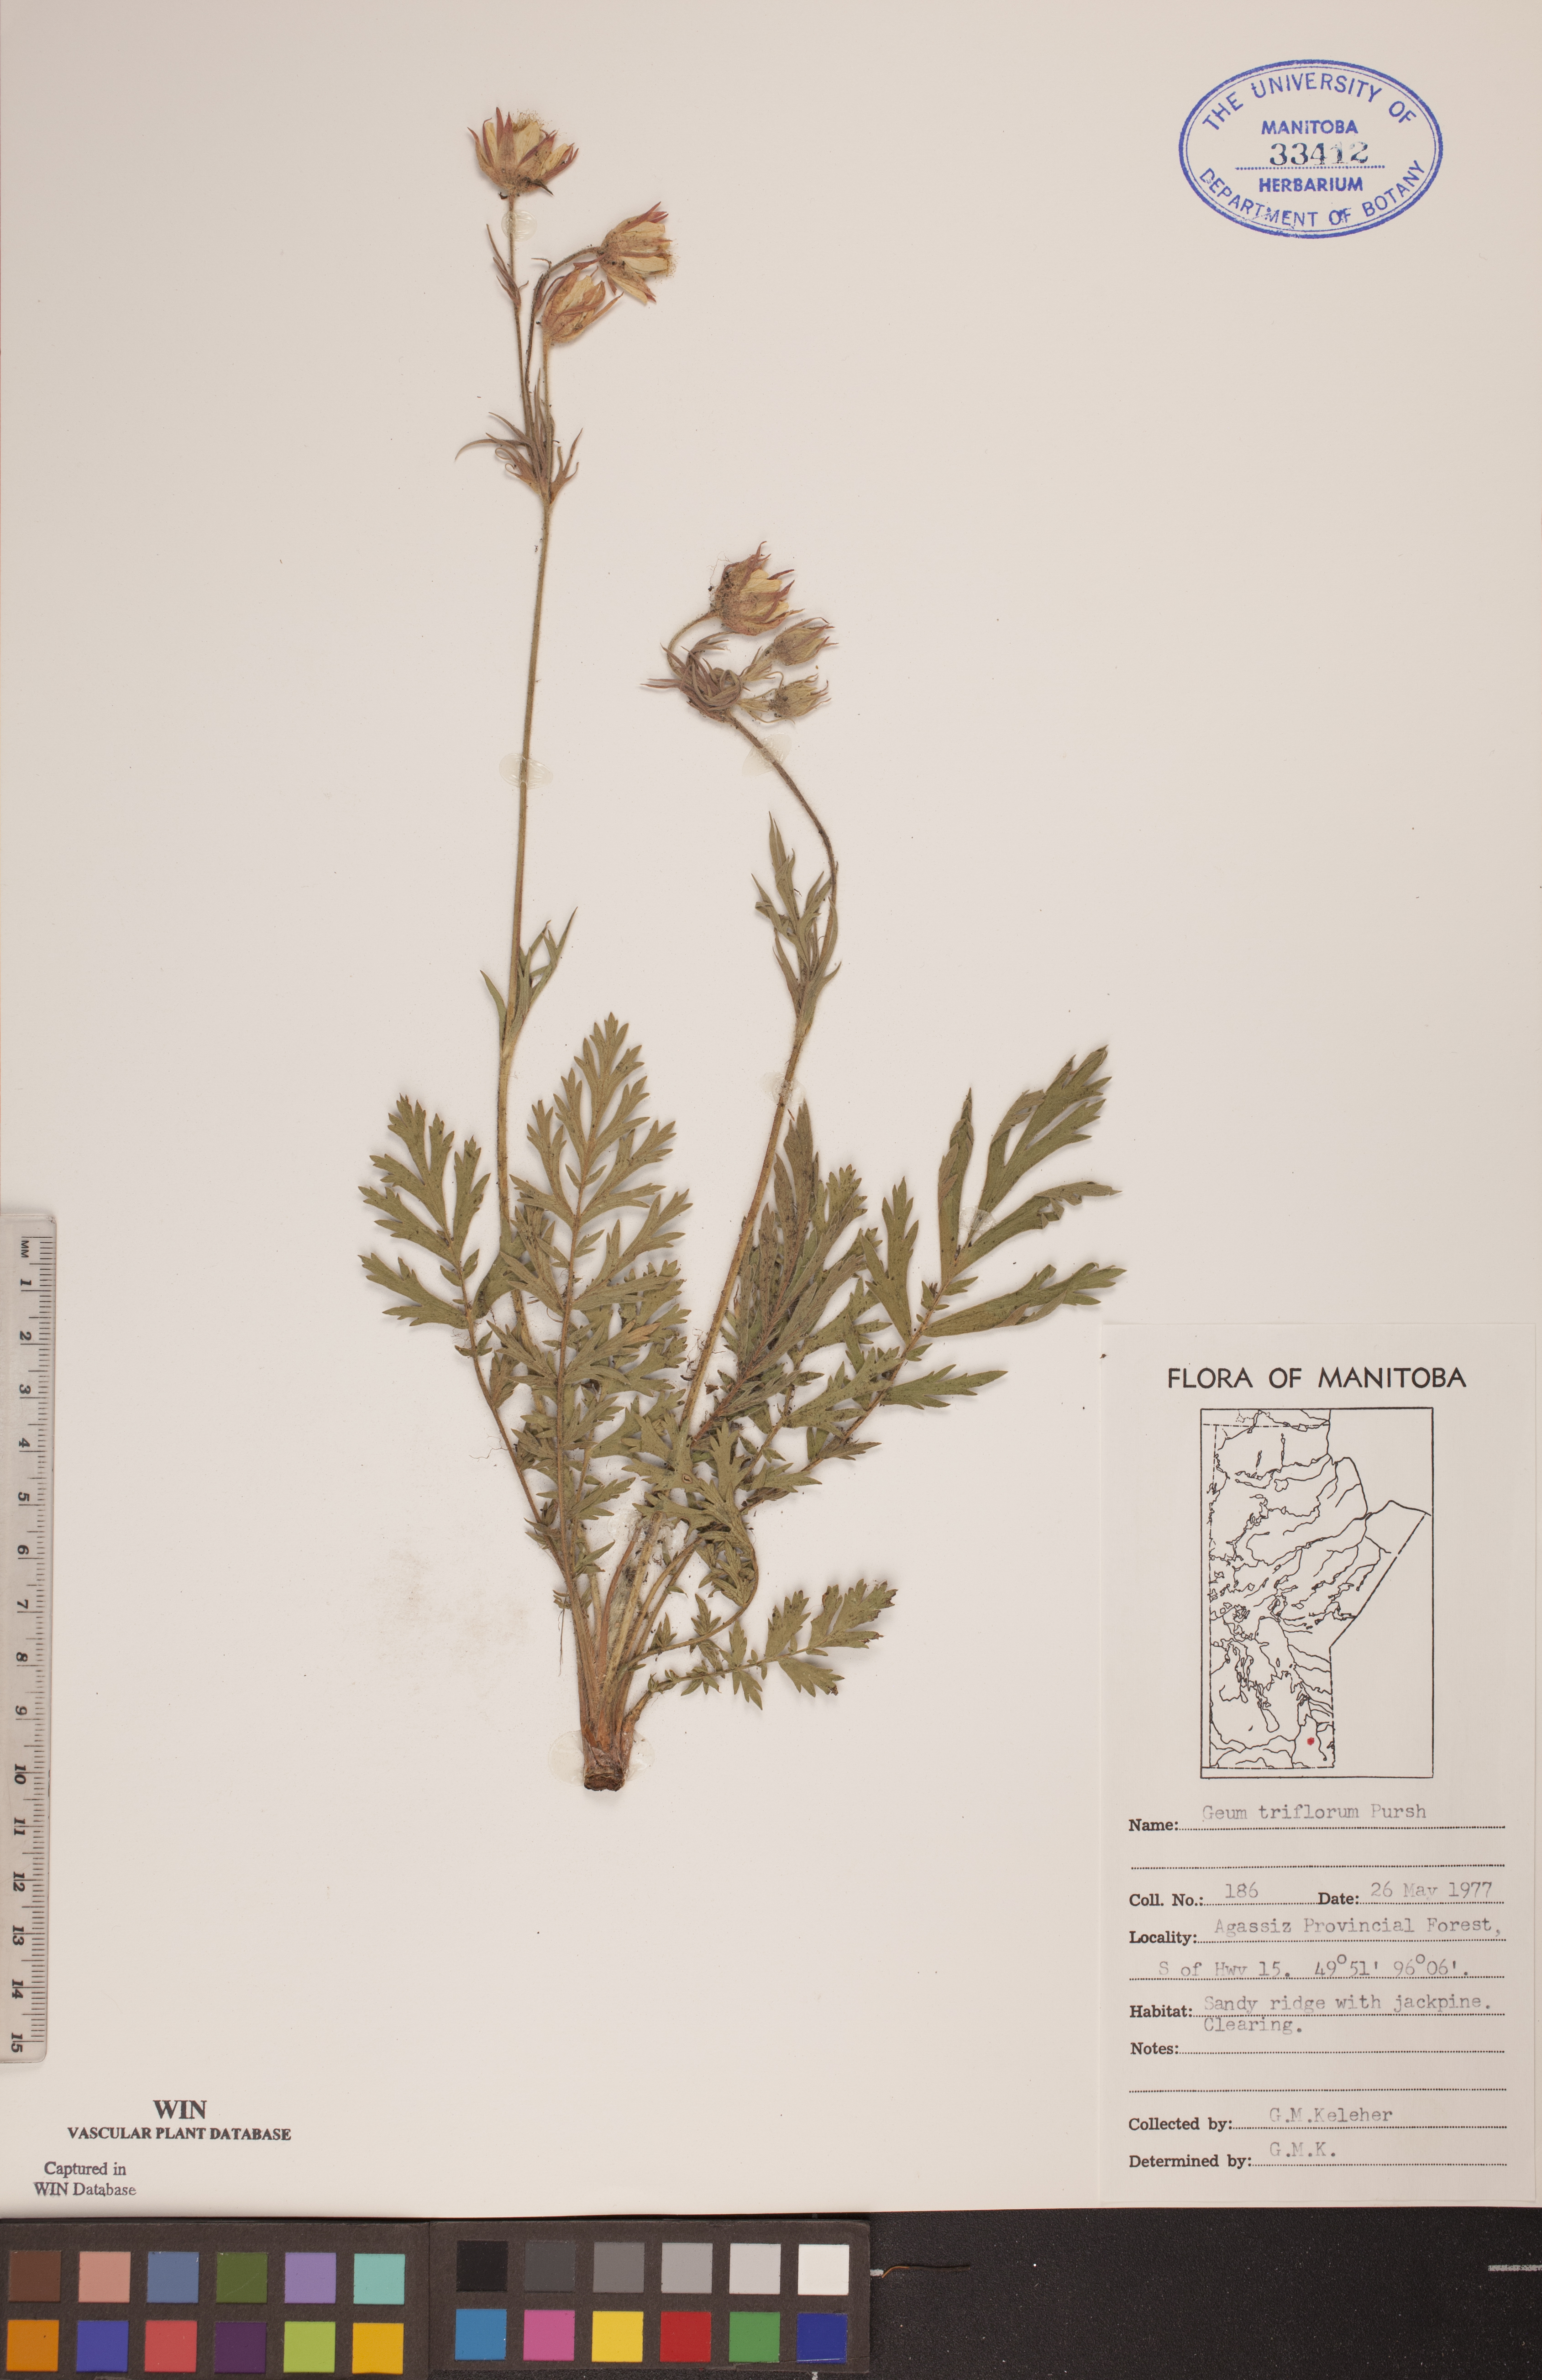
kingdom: Plantae
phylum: Tracheophyta
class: Magnoliopsida
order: Rosales
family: Rosaceae
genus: Geum
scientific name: Geum triflorum
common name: Old man's whiskers
